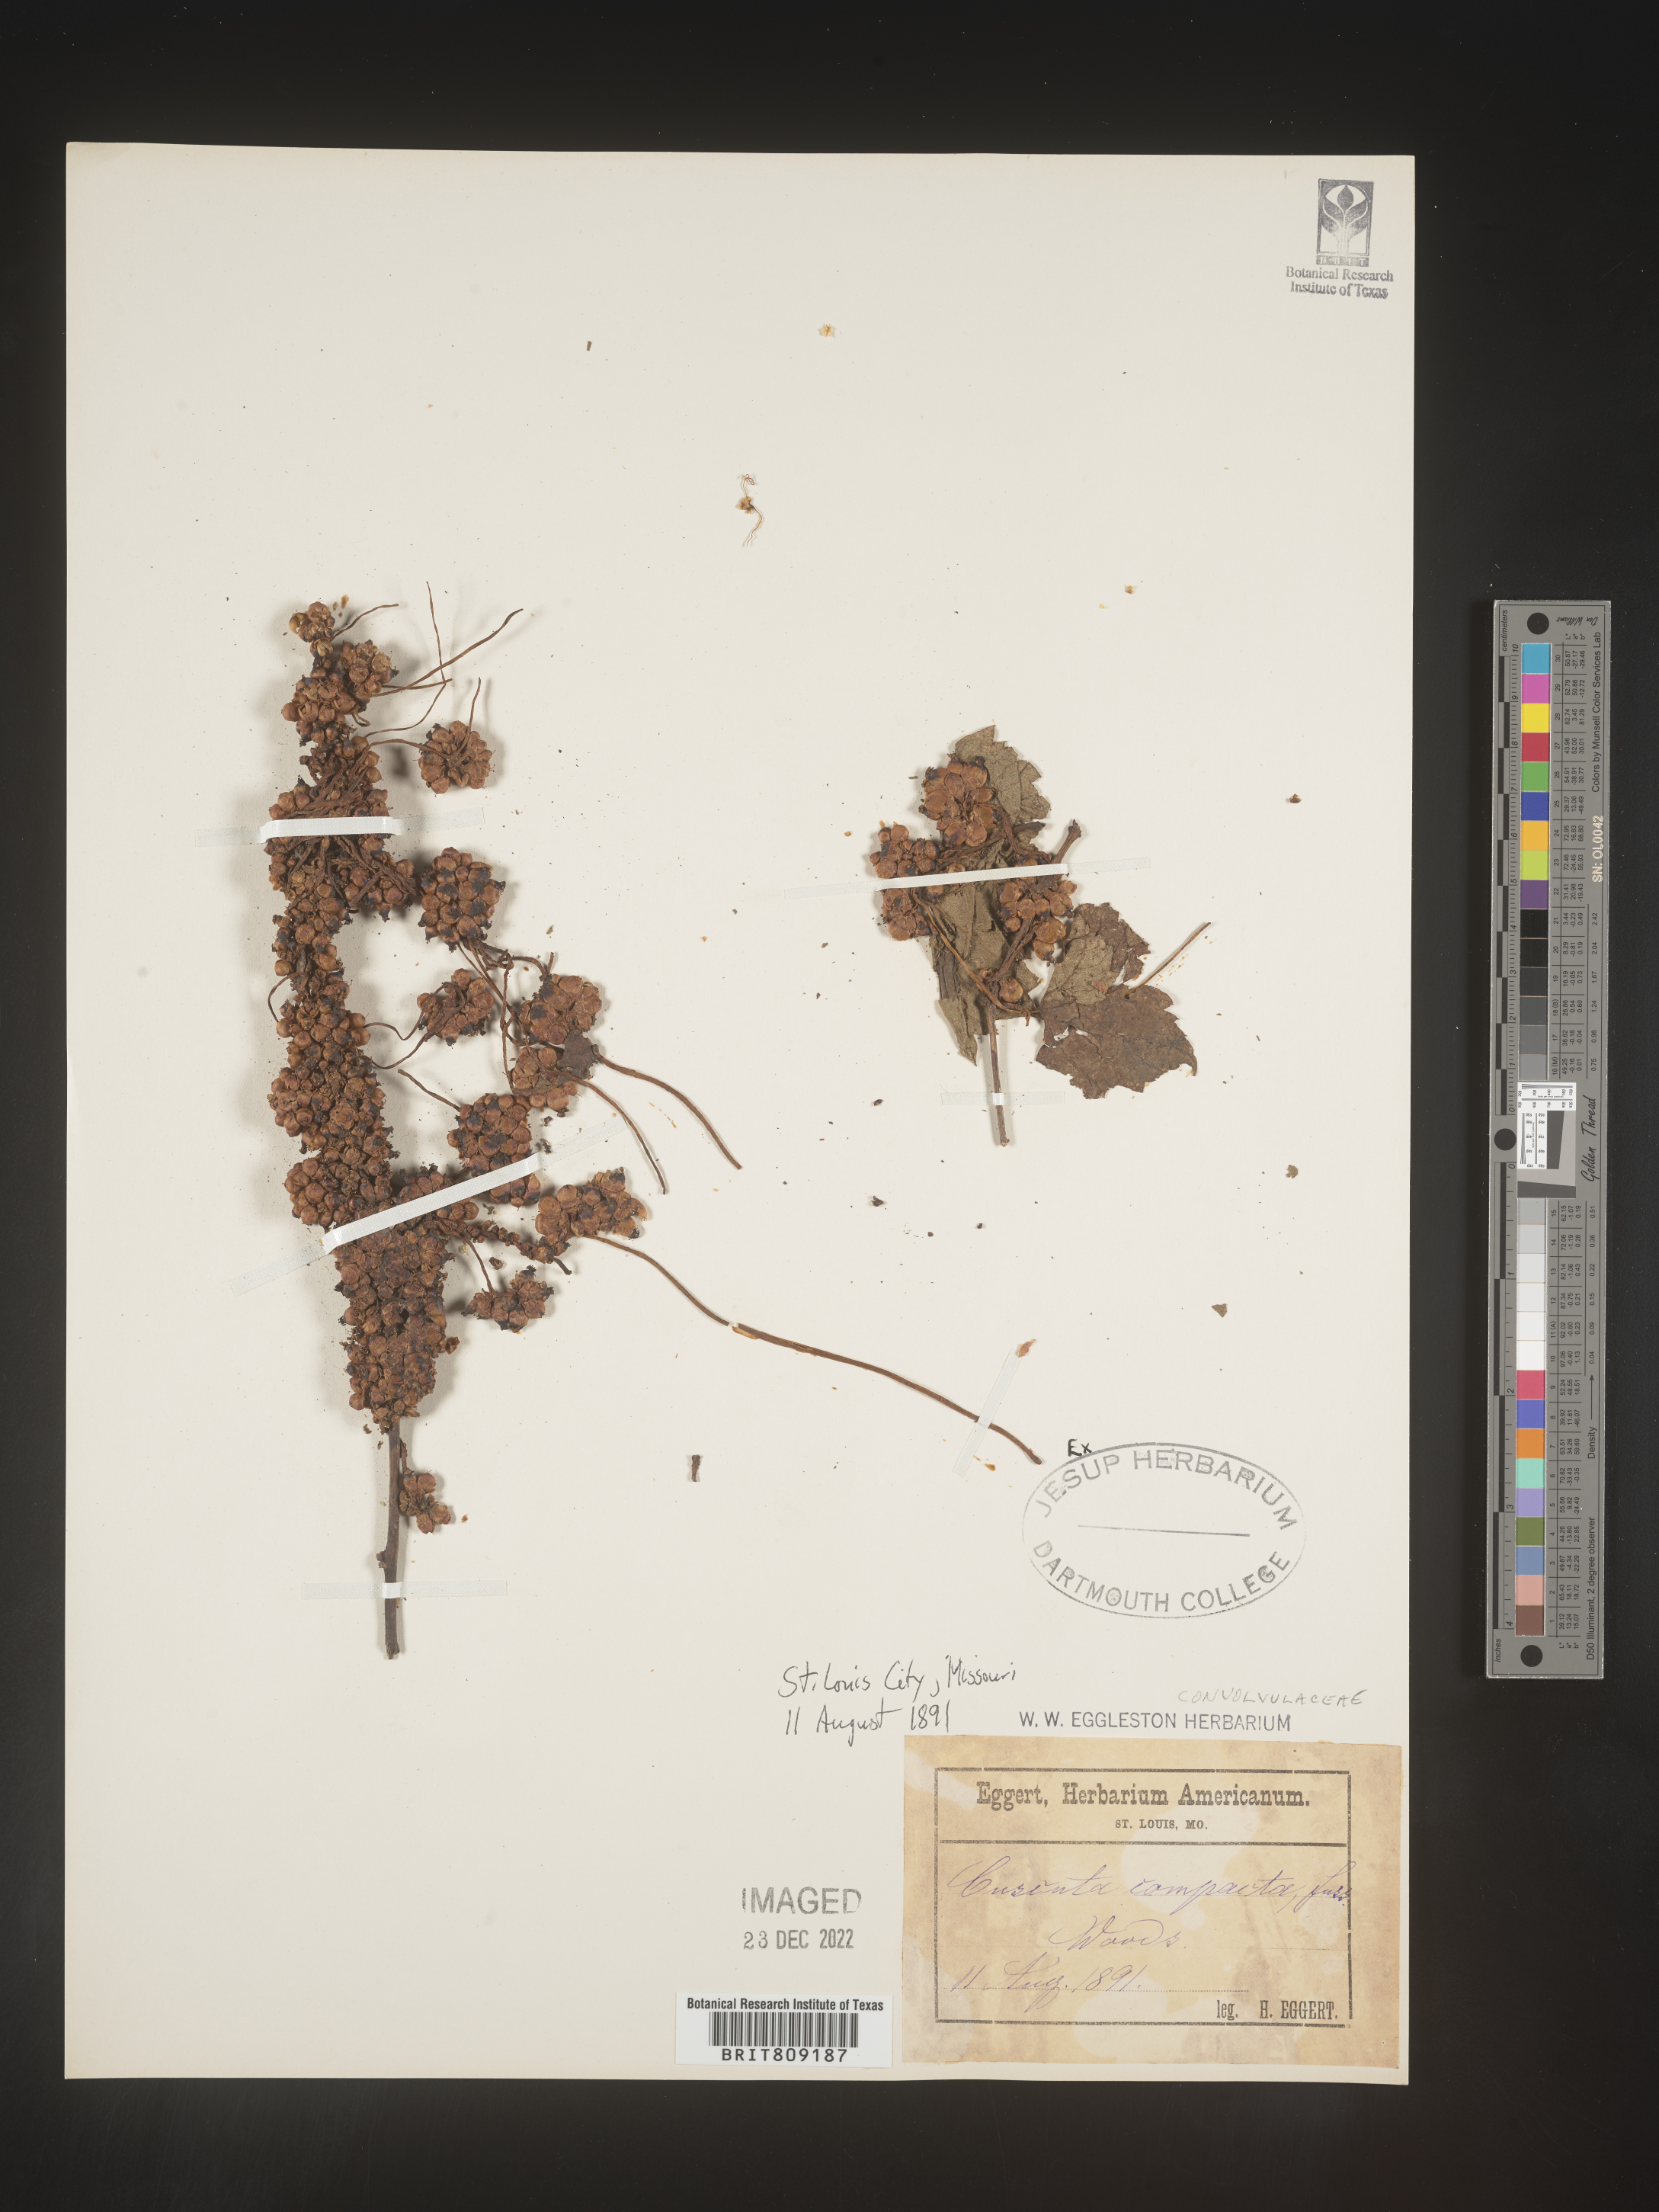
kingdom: Plantae
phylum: Tracheophyta
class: Magnoliopsida
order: Solanales
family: Convolvulaceae
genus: Cuscuta
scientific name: Cuscuta campestris
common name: Yellow dodder
